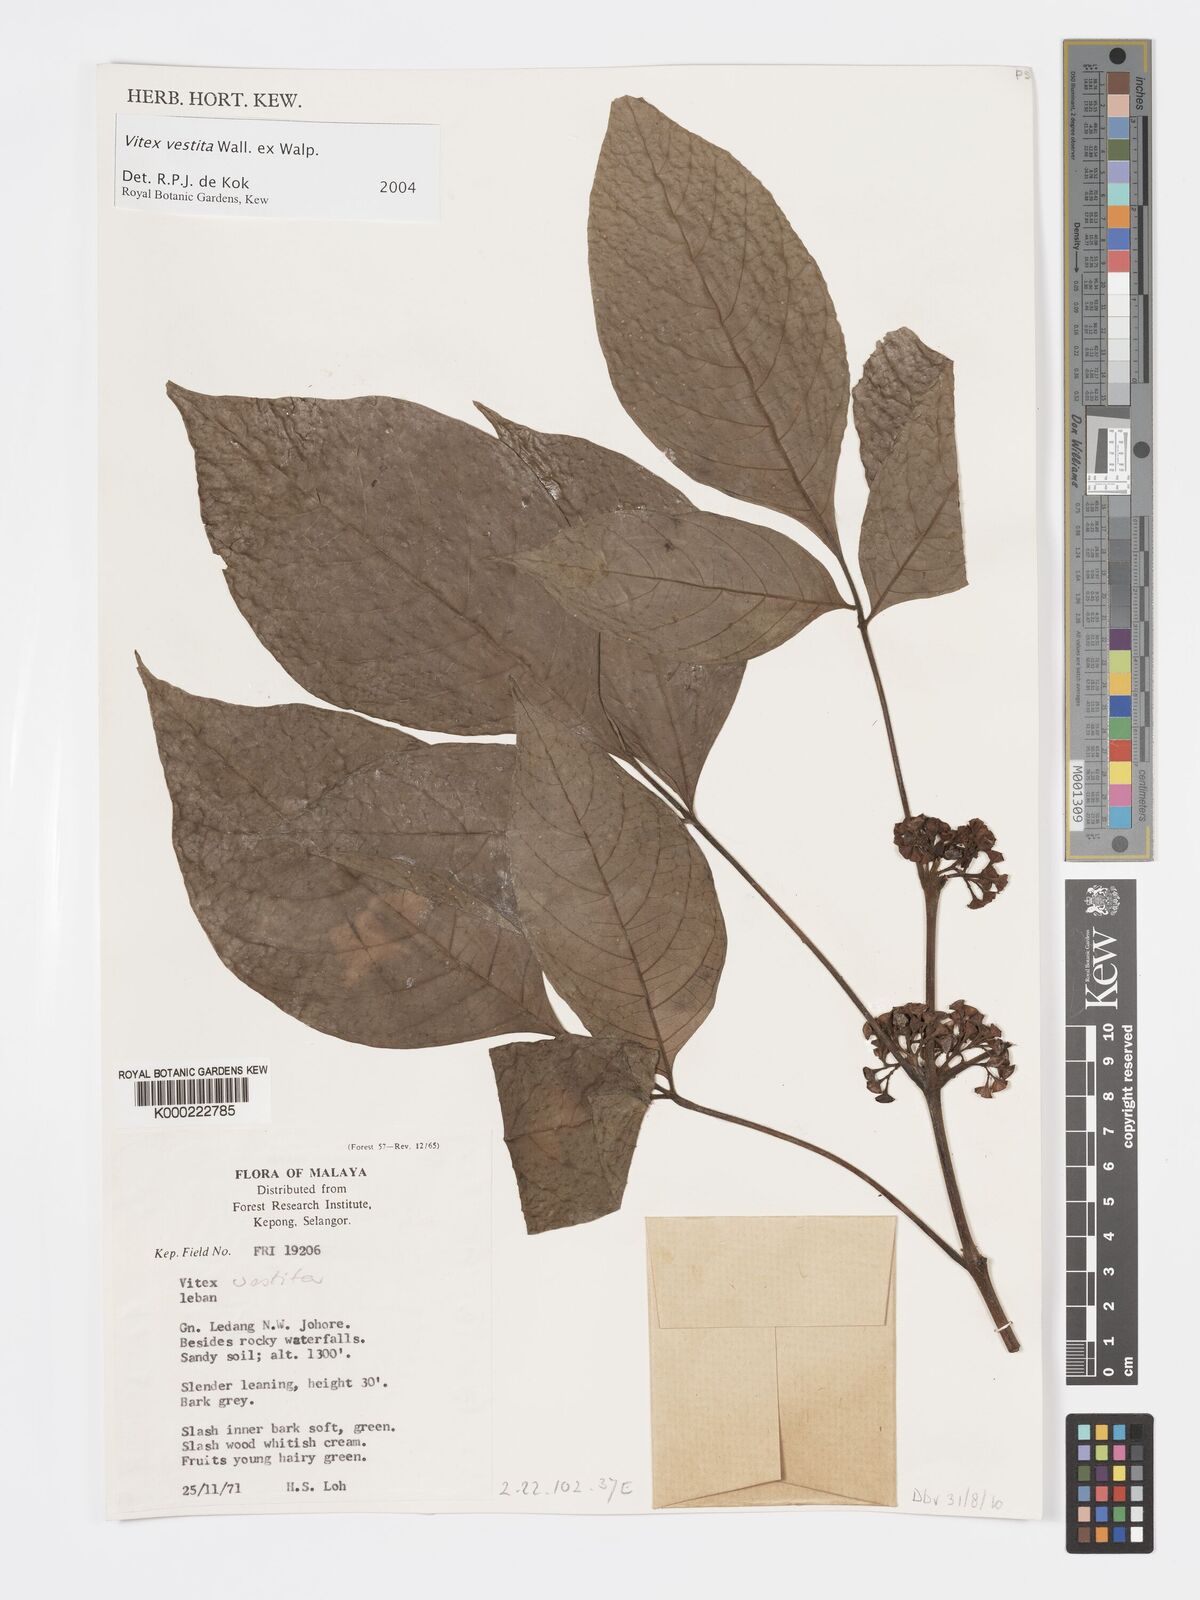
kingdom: Plantae
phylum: Tracheophyta
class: Magnoliopsida
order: Lamiales
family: Lamiaceae
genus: Vitex
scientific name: Vitex vestita
